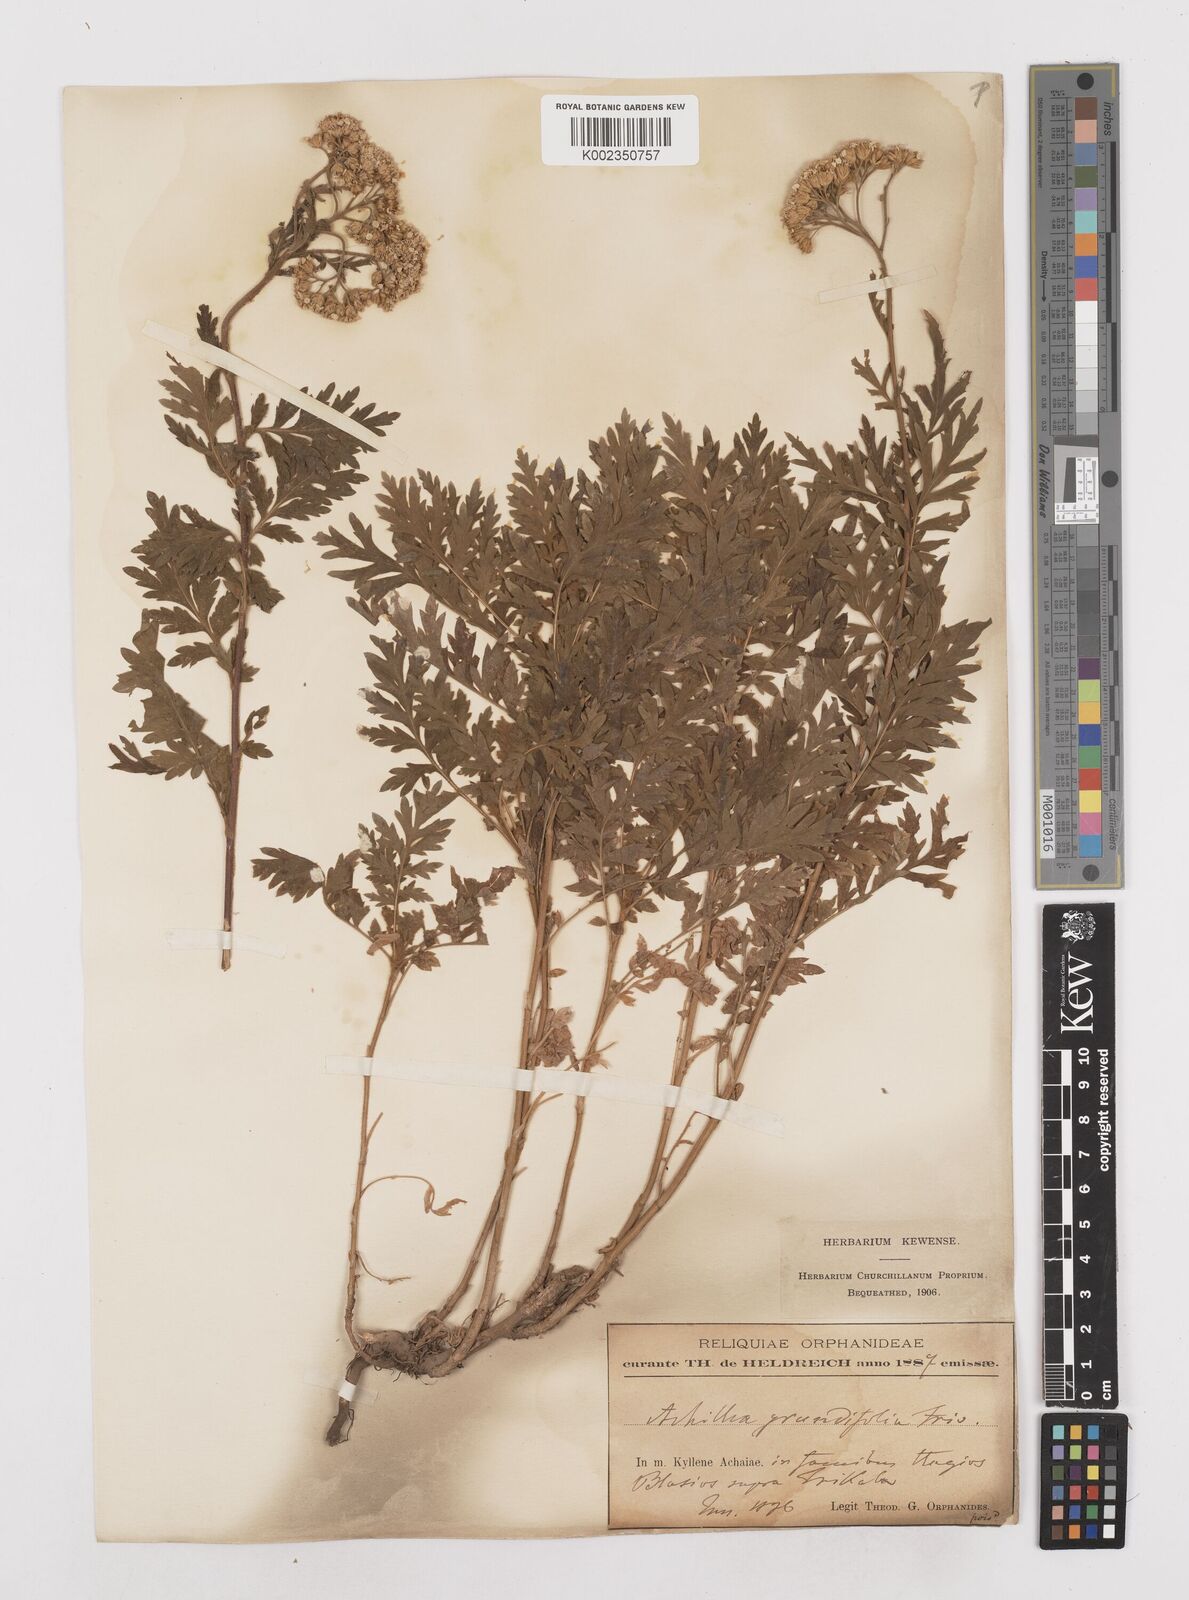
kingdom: Plantae
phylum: Tracheophyta
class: Magnoliopsida
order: Asterales
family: Asteraceae
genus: Achillea
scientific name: Achillea grandifolia
